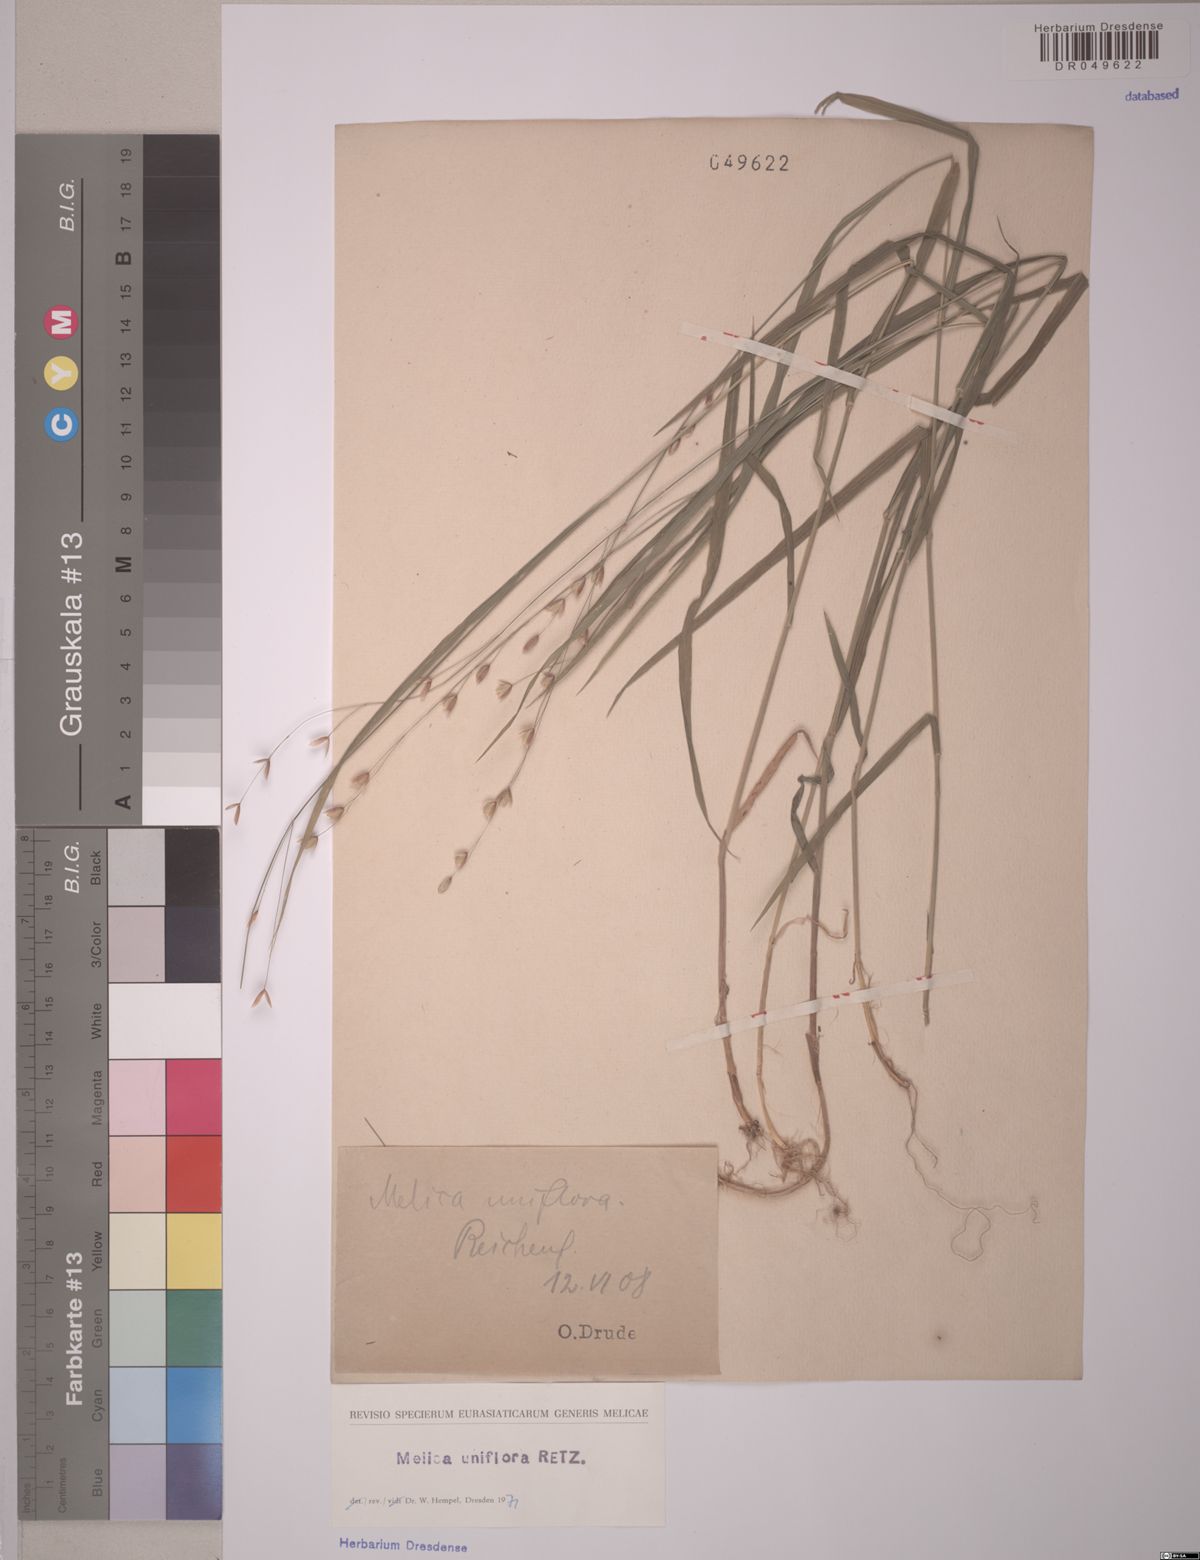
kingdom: Plantae
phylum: Tracheophyta
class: Liliopsida
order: Poales
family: Poaceae
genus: Melica
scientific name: Melica uniflora
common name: Wood melick
